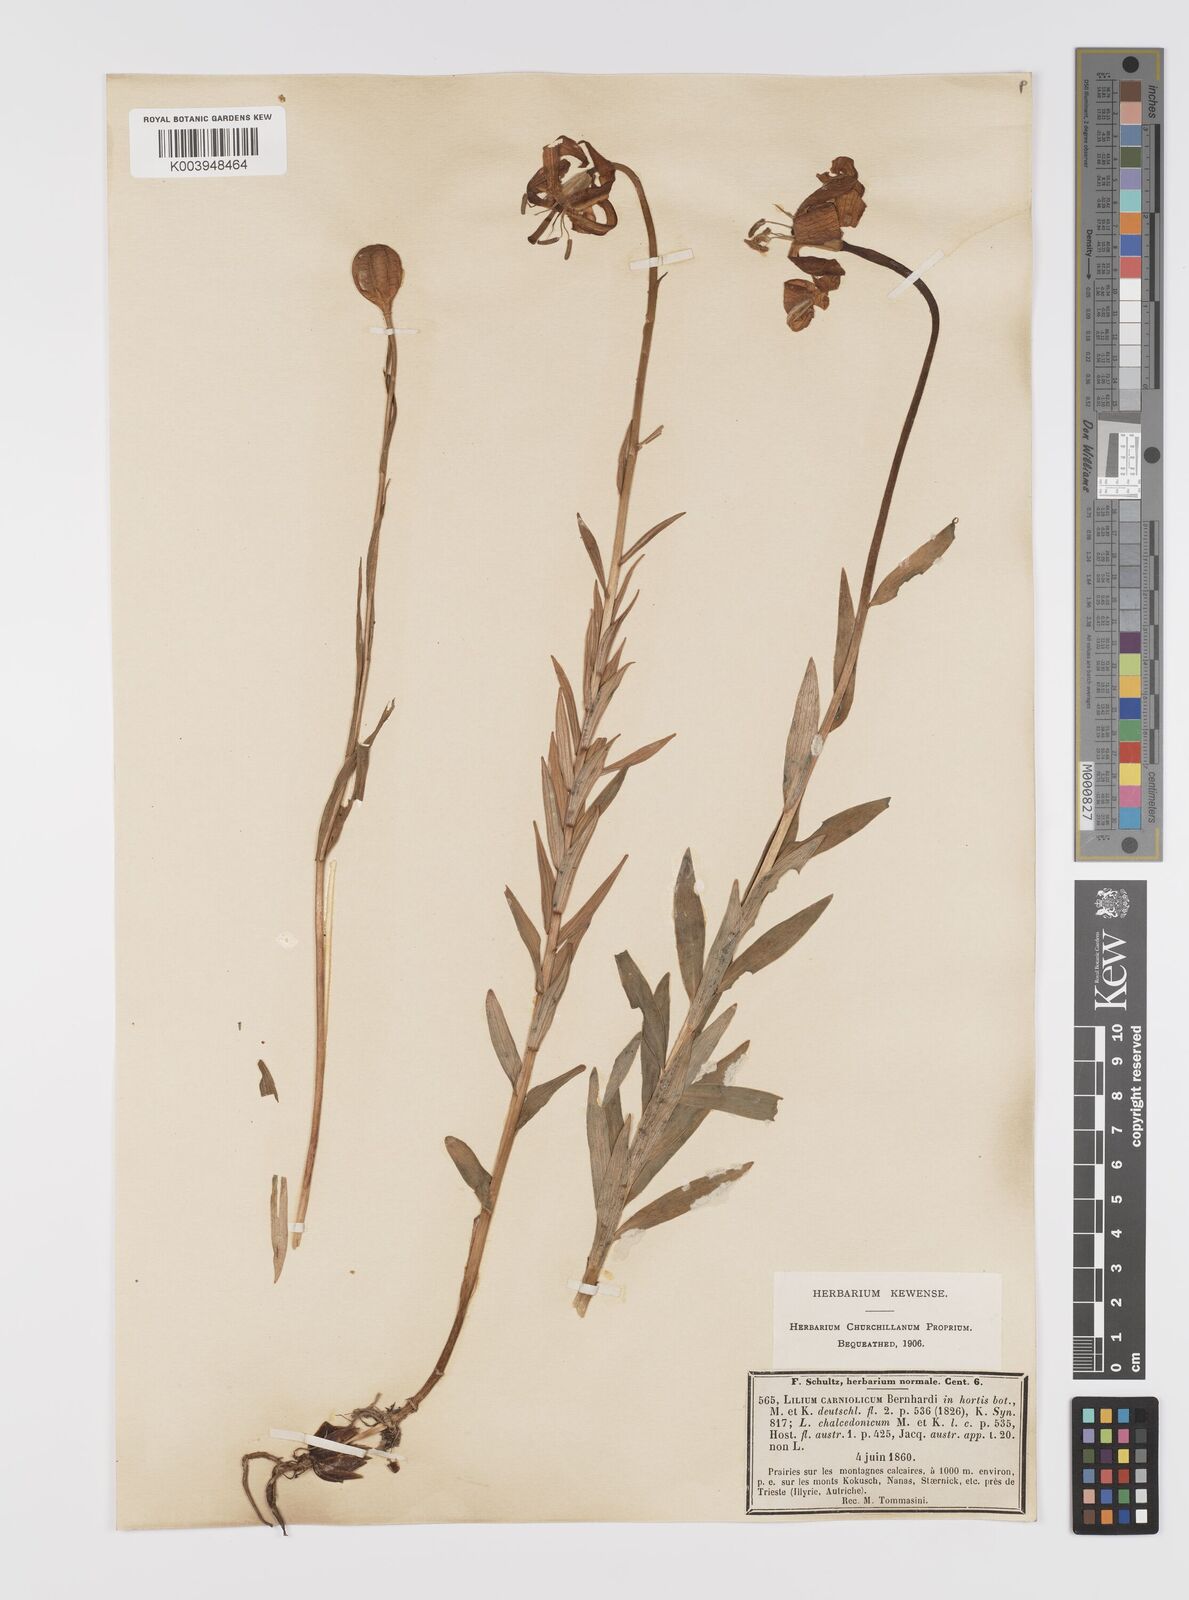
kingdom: Plantae
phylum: Tracheophyta
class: Liliopsida
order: Liliales
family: Liliaceae
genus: Lilium
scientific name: Lilium
